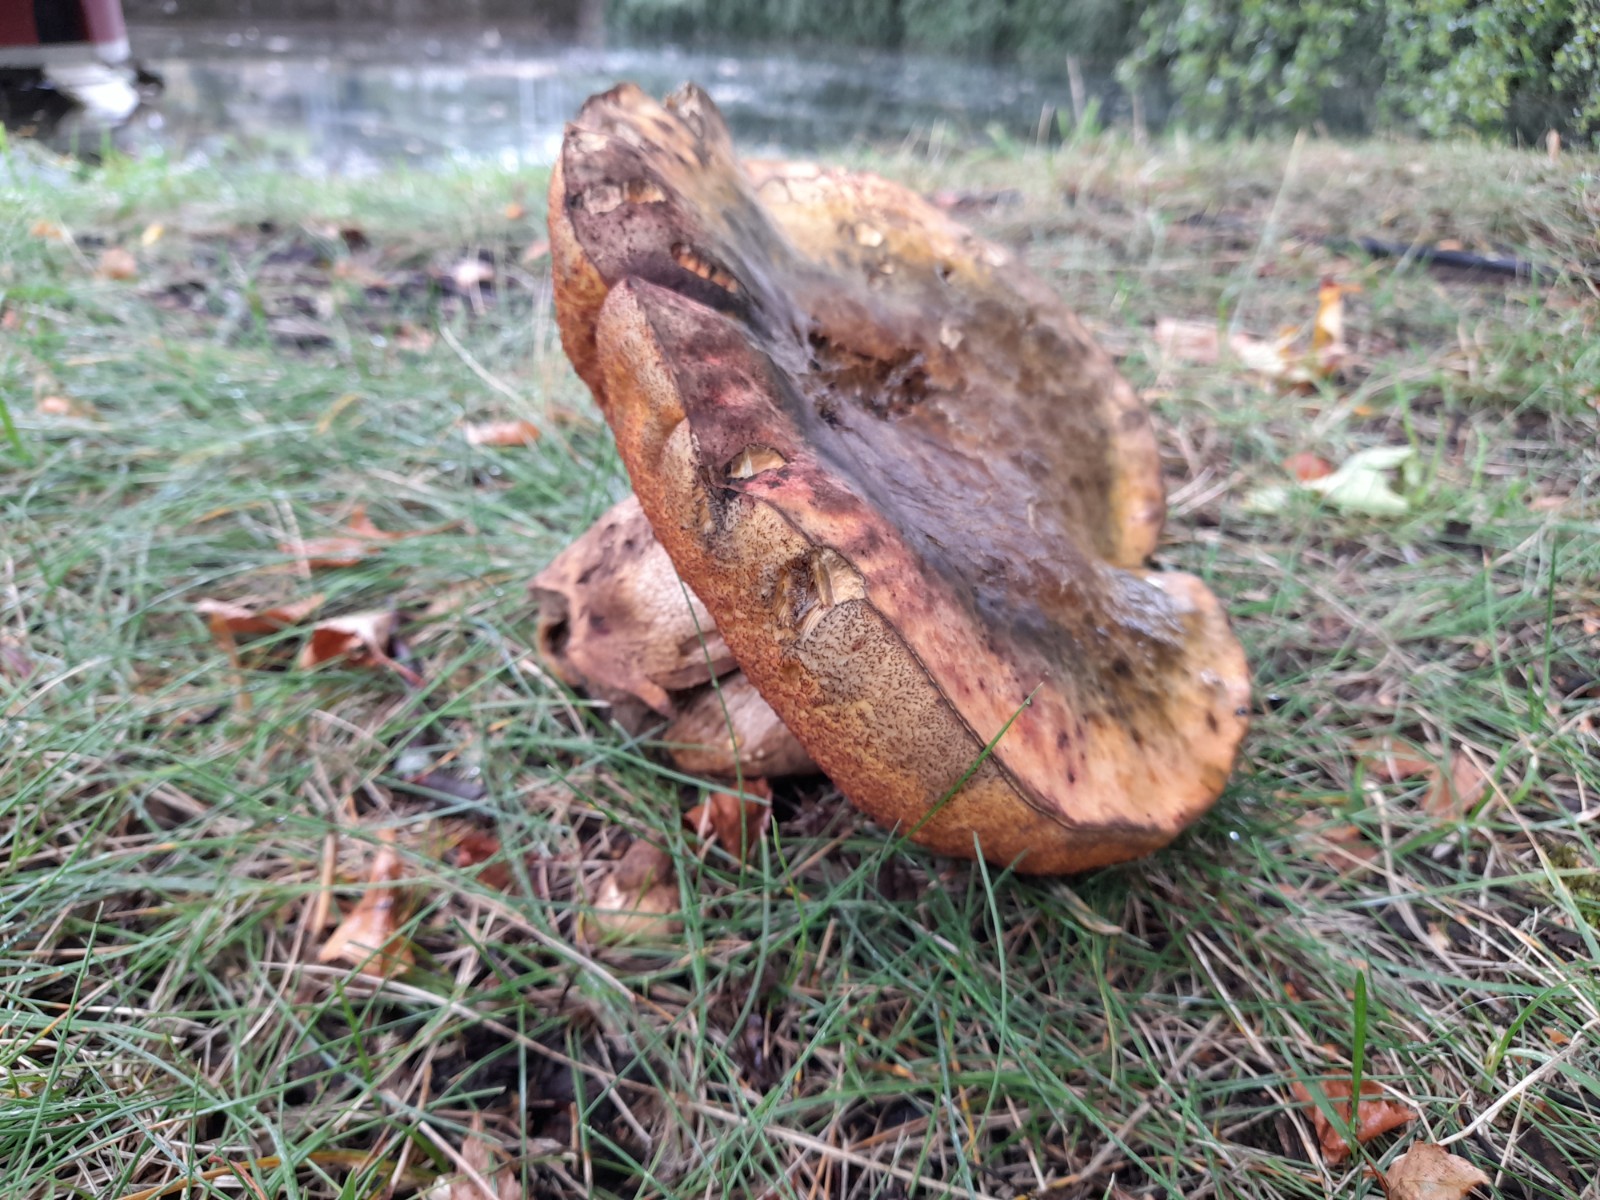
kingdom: Fungi
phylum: Basidiomycota
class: Agaricomycetes
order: Boletales
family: Boletaceae
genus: Suillellus
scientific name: Suillellus luridus
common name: netstokket indigorørhat
